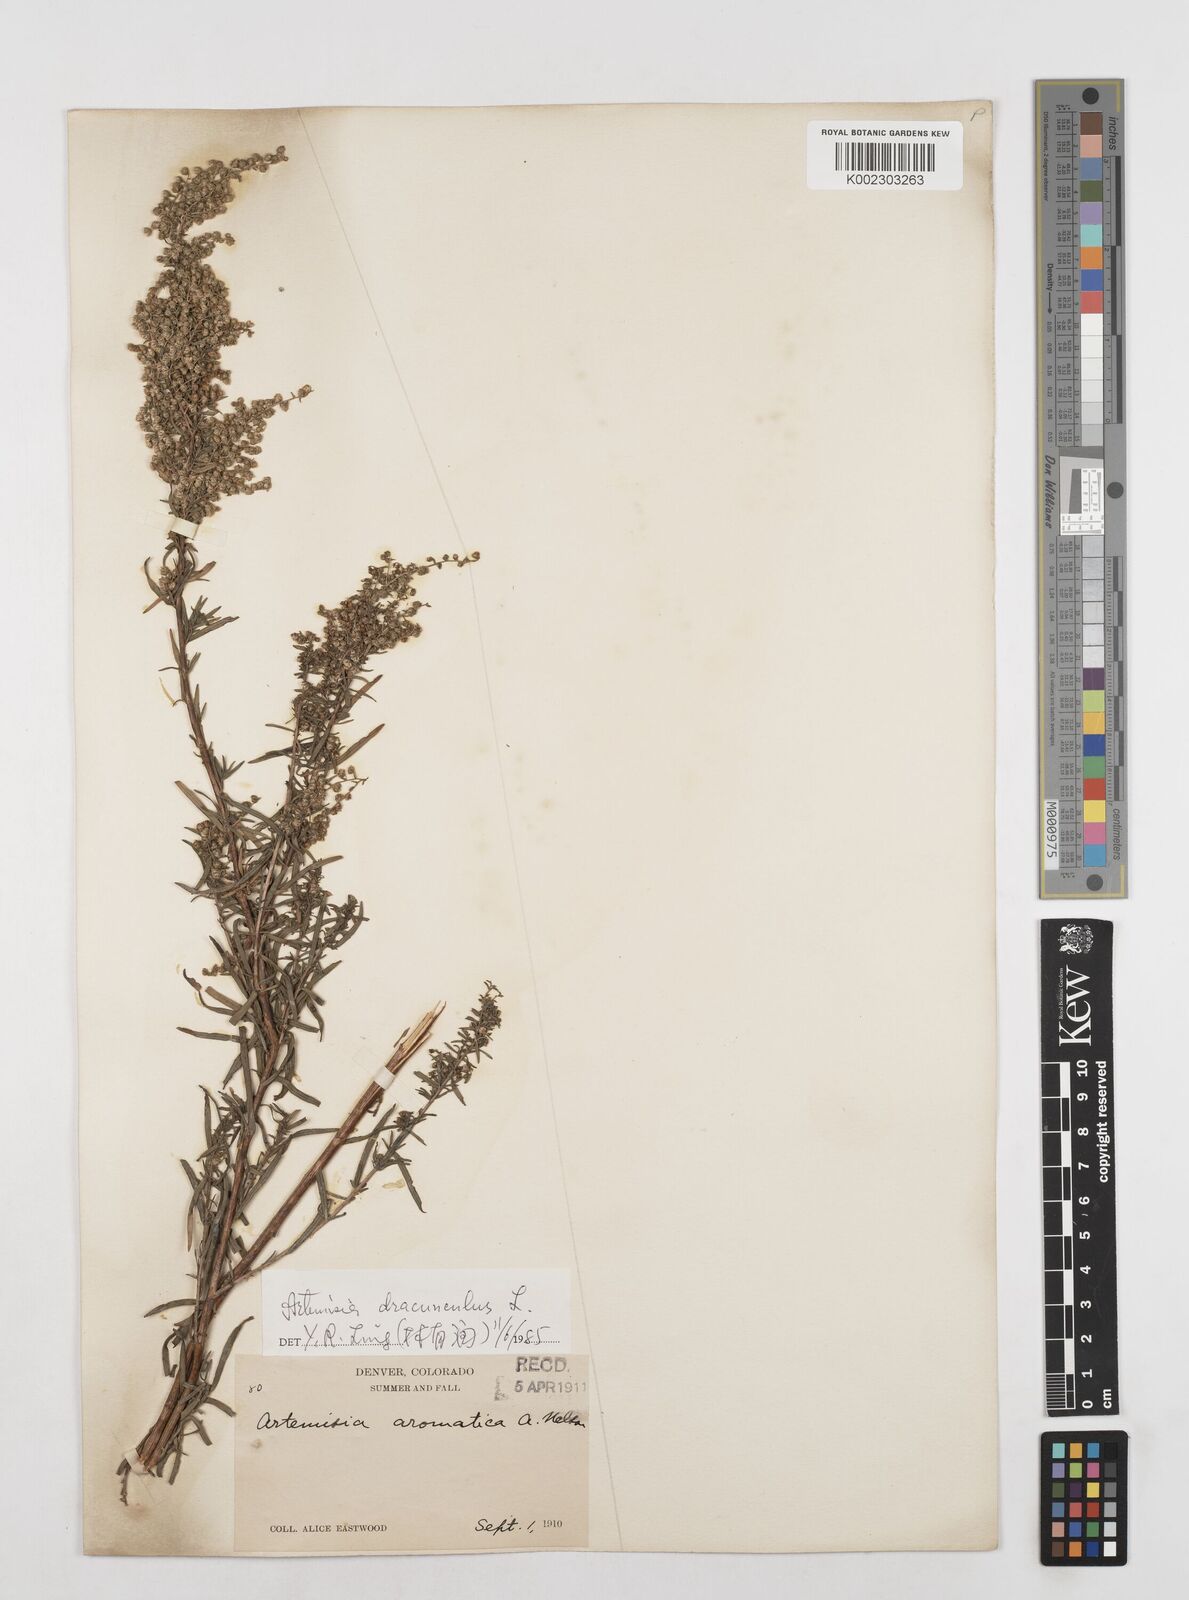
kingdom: Plantae
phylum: Tracheophyta
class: Magnoliopsida
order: Asterales
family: Asteraceae
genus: Artemisia
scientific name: Artemisia dracunculus
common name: Tarragon
